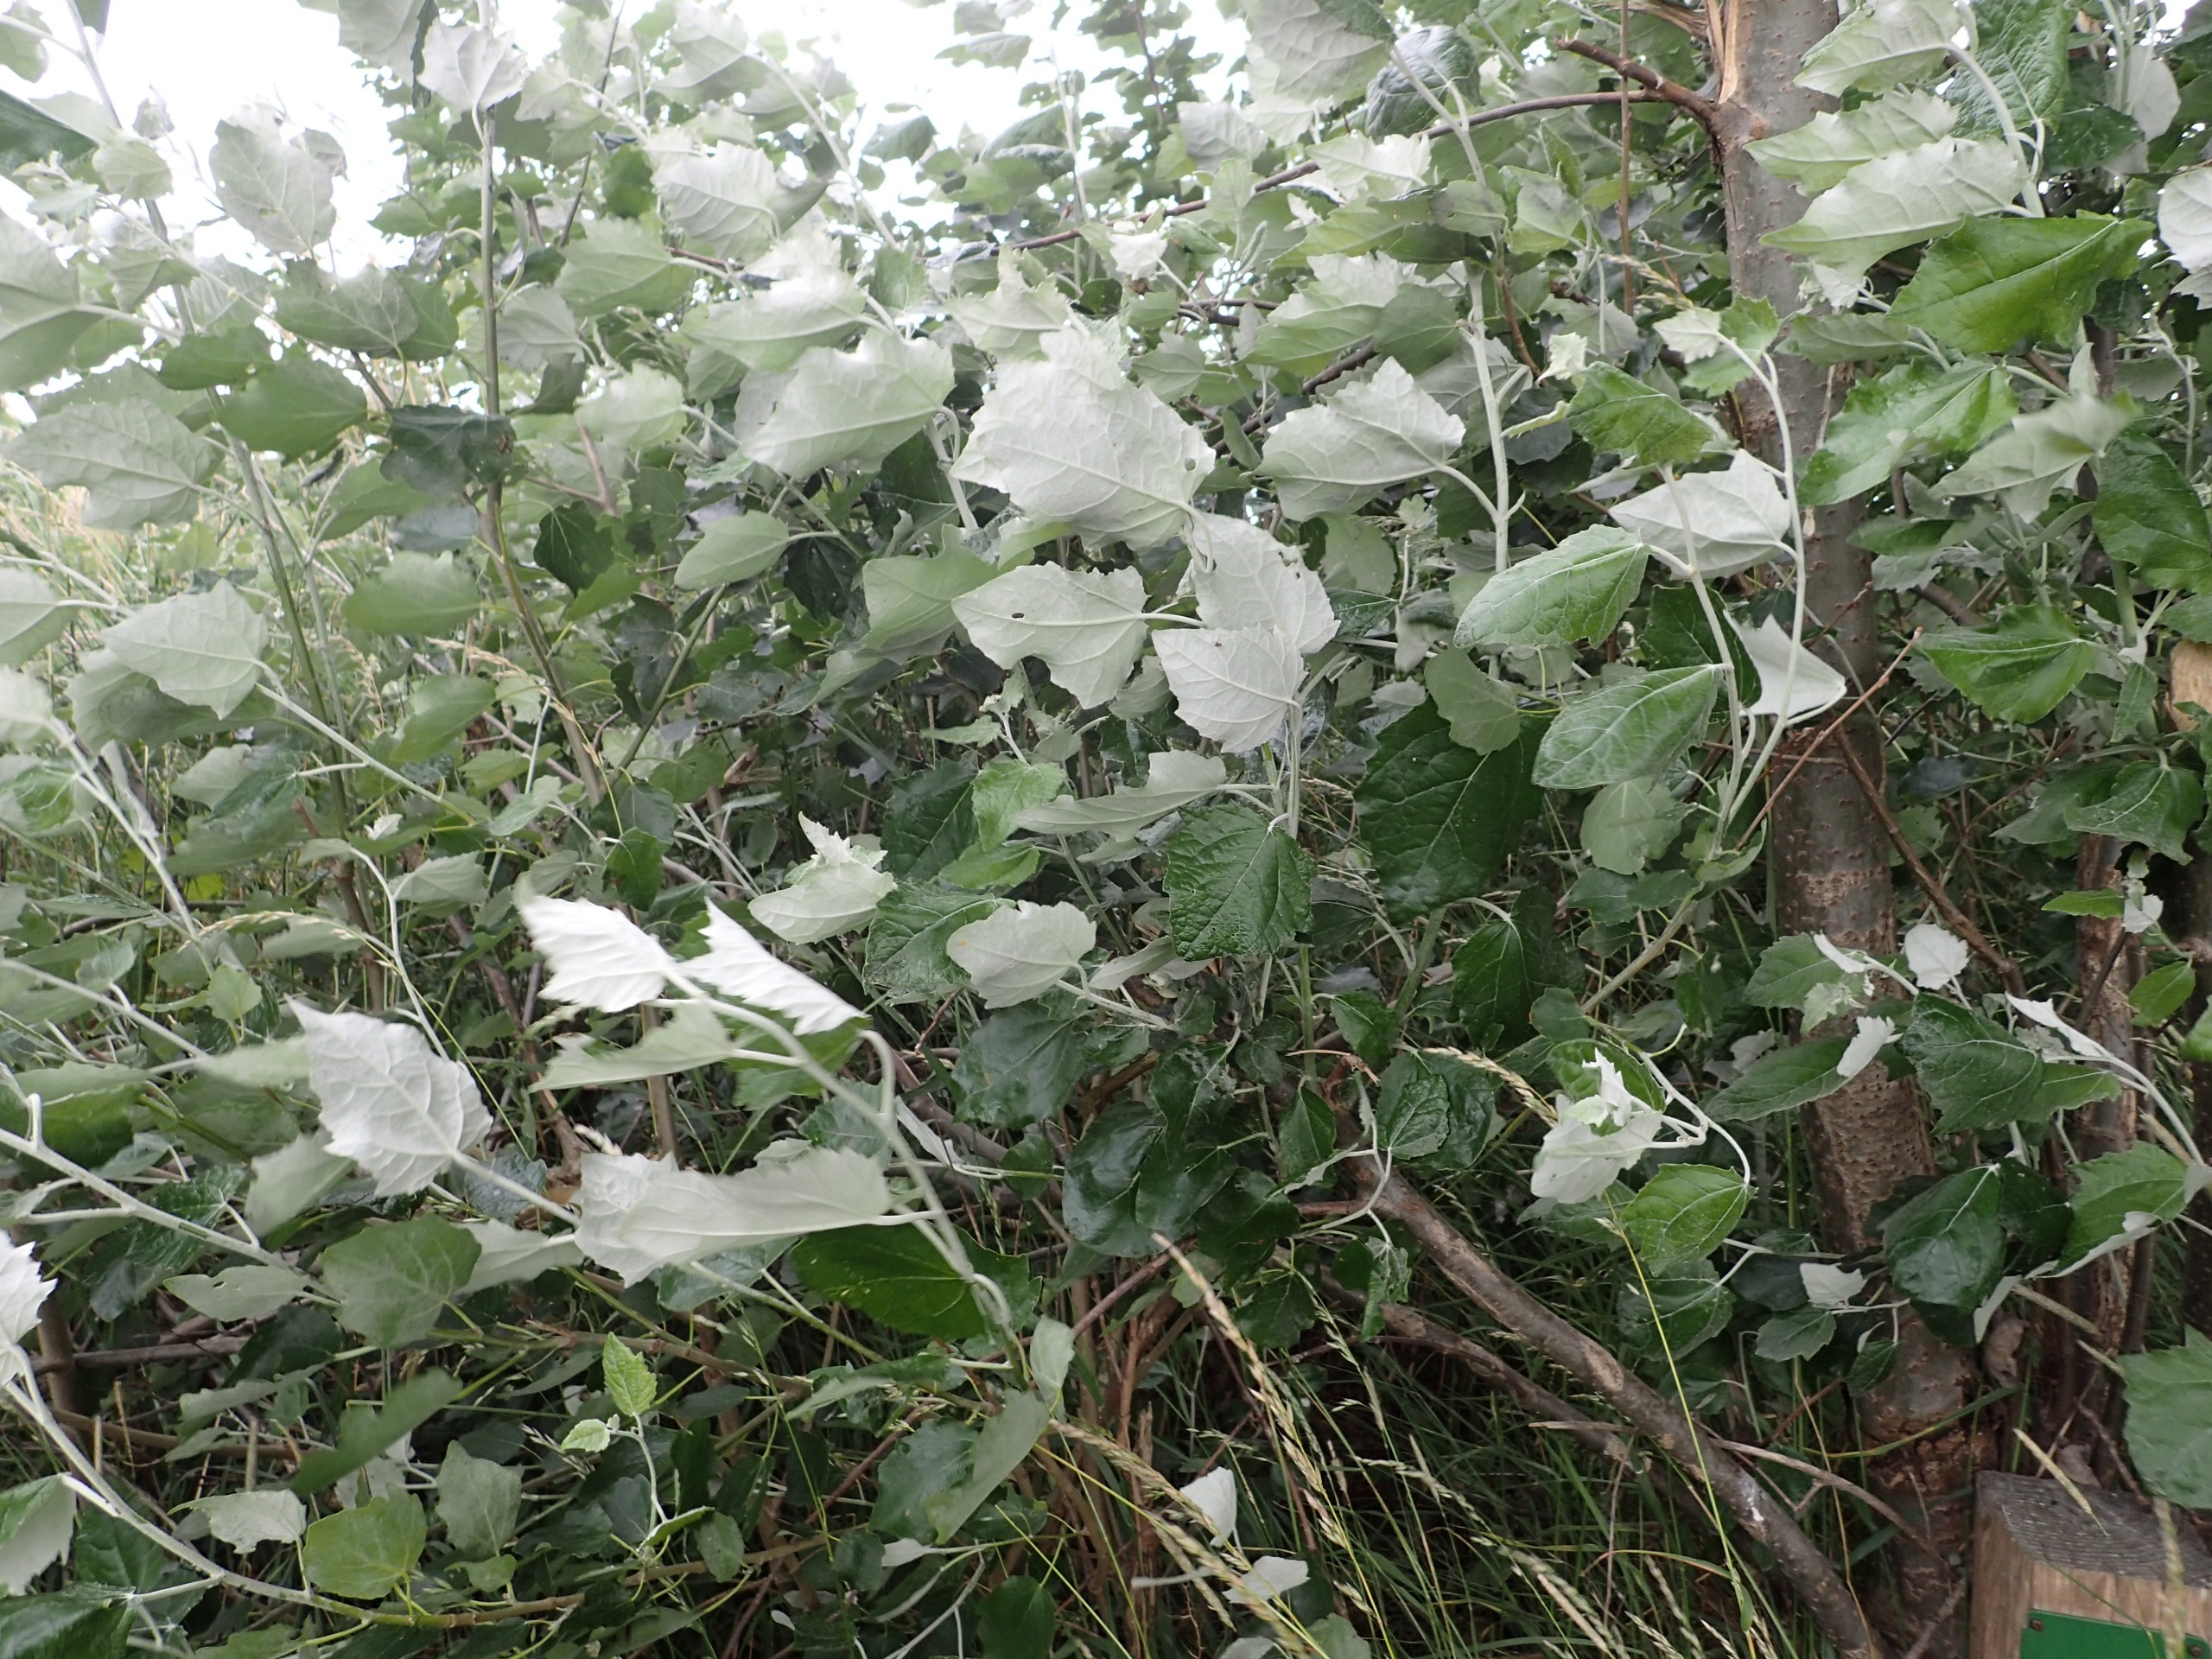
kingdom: Plantae
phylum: Tracheophyta
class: Magnoliopsida
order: Malpighiales
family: Salicaceae
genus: Populus
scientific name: Populus canescens
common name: Grå-poppel
